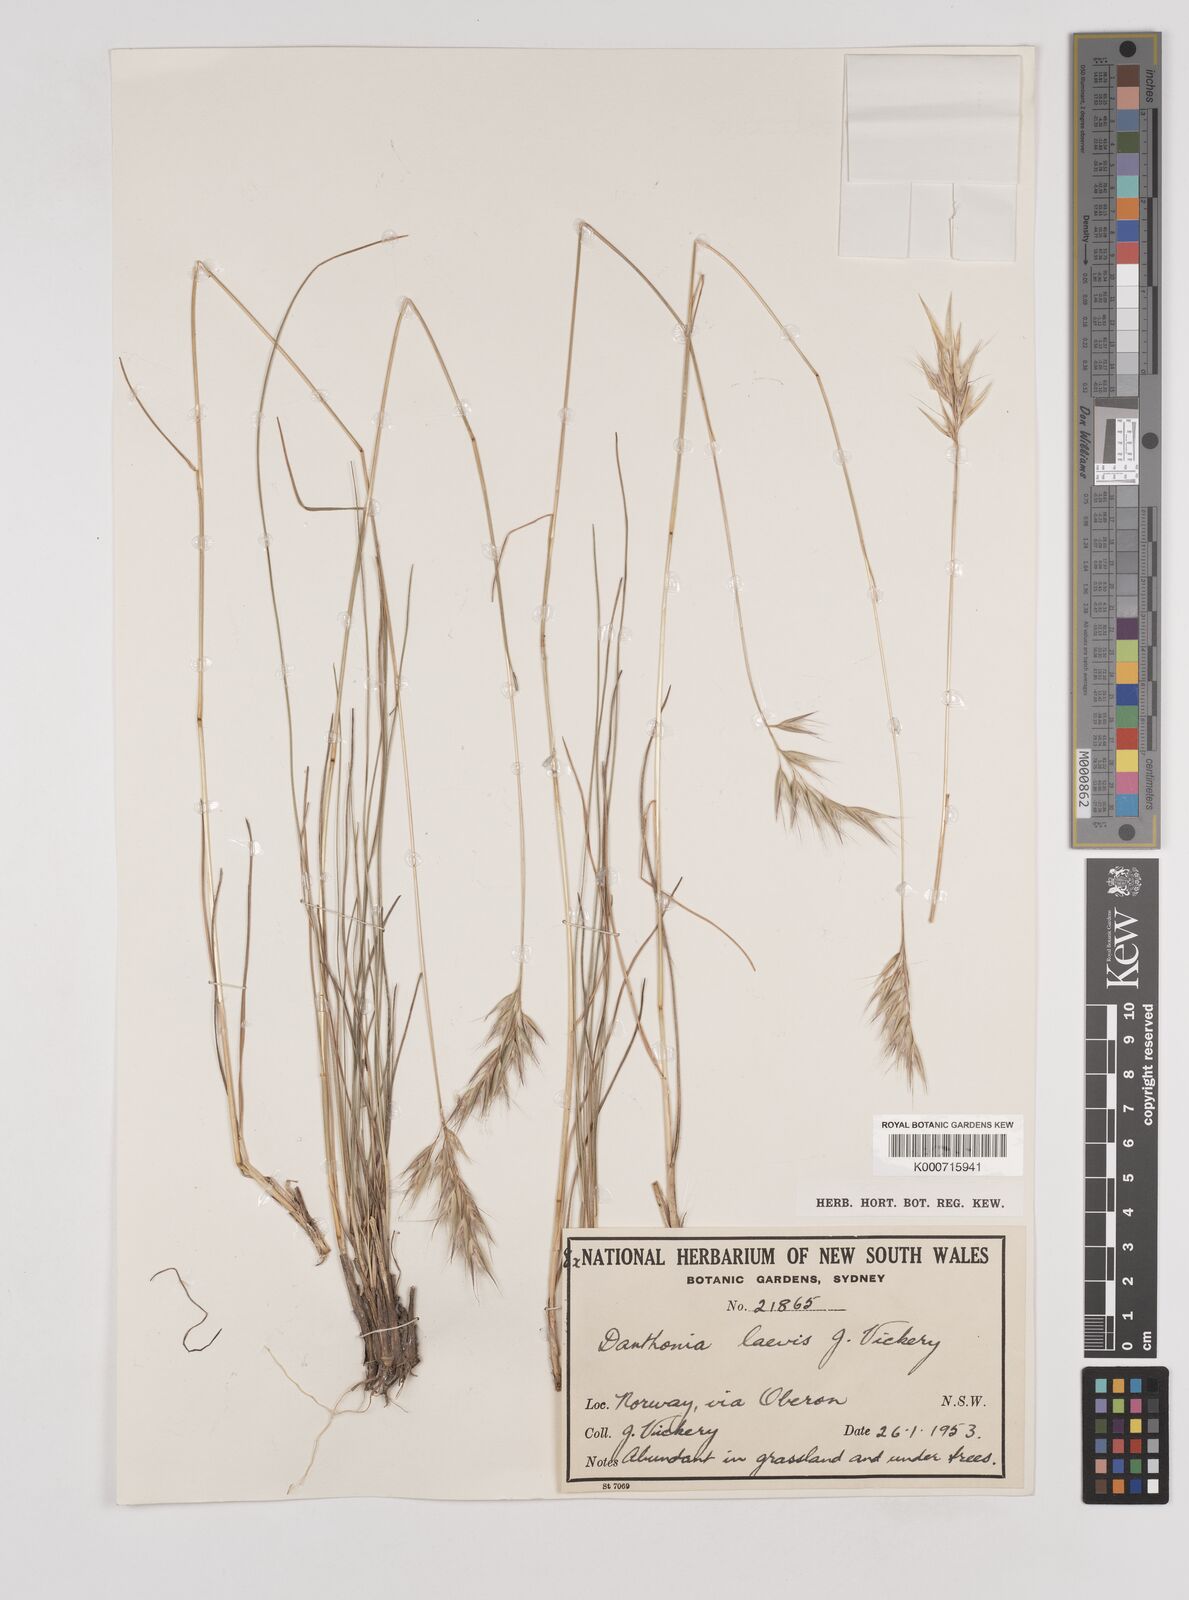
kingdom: Plantae
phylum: Tracheophyta
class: Liliopsida
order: Poales
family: Poaceae
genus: Rytidosperma
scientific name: Rytidosperma laeve
